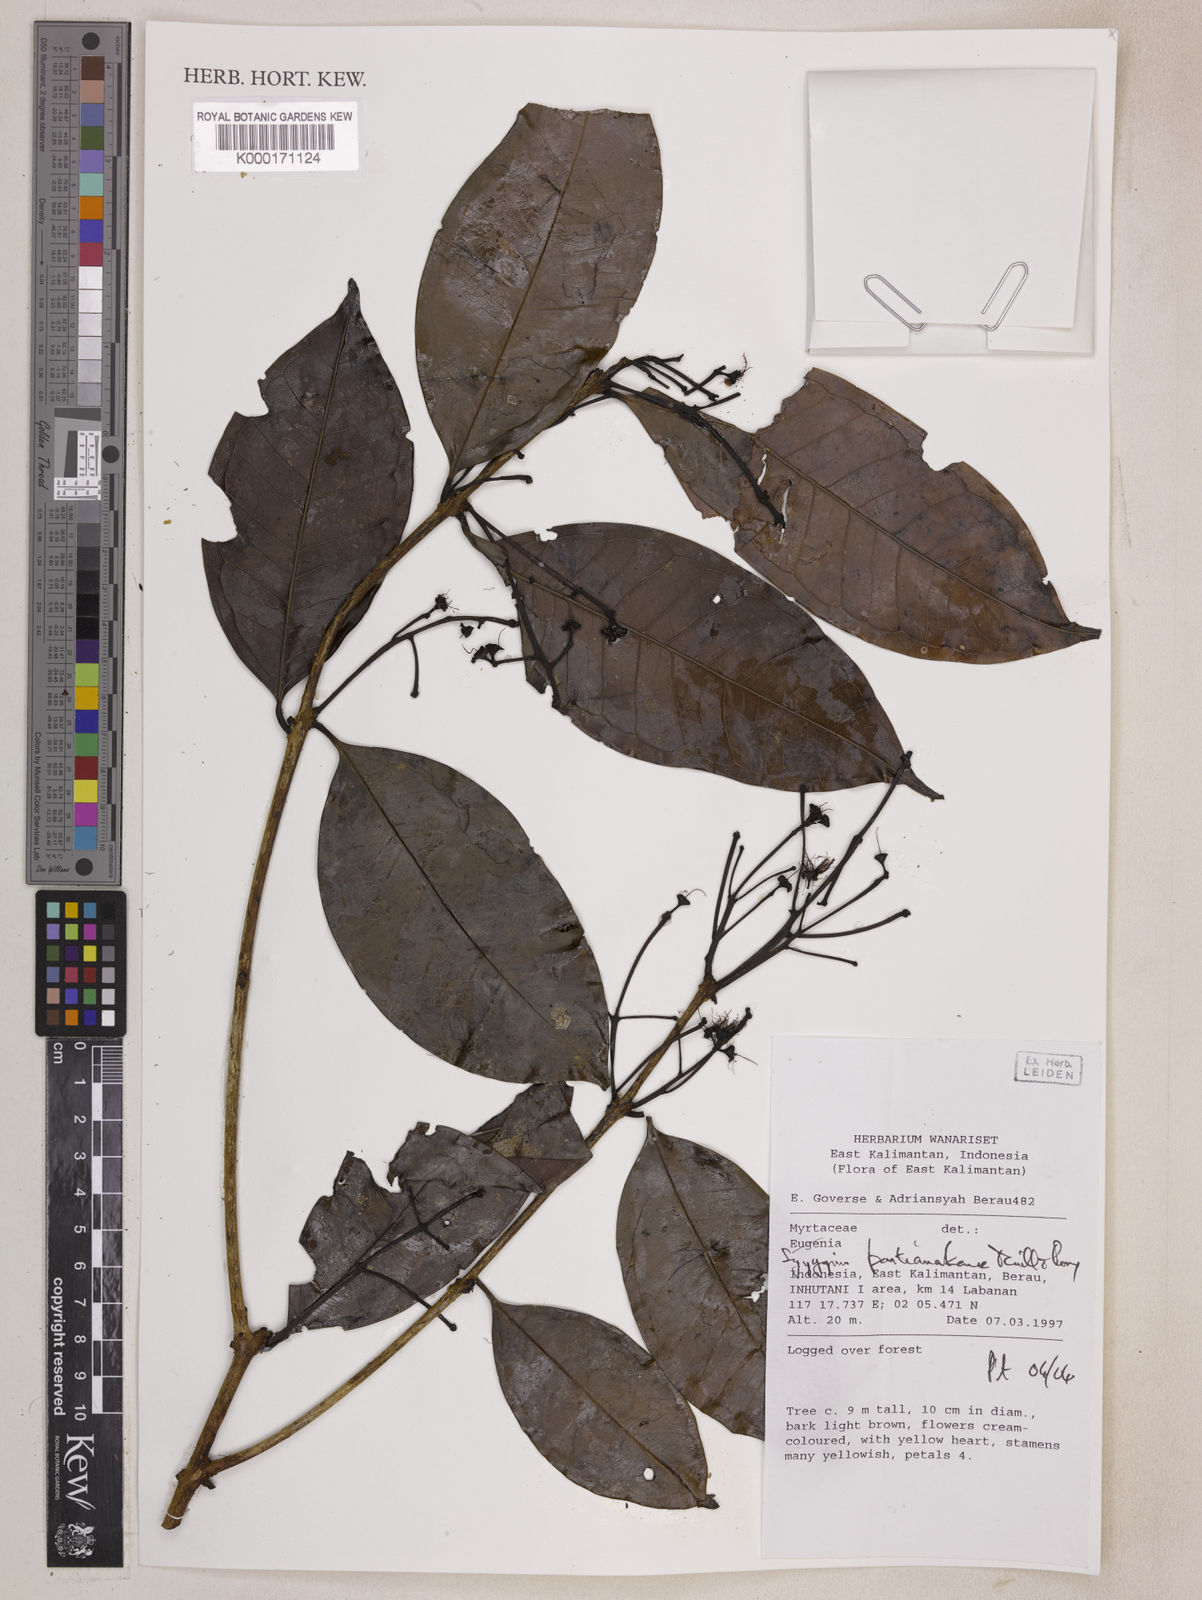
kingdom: Plantae
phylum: Tracheophyta
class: Magnoliopsida
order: Myrtales
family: Myrtaceae
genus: Syzygium
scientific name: Syzygium pontianakense
